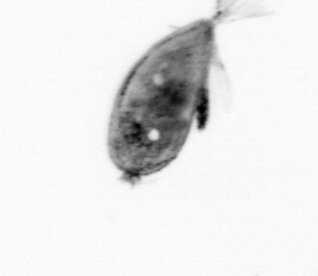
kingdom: Animalia
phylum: Arthropoda
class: Maxillopoda
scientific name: Maxillopoda
